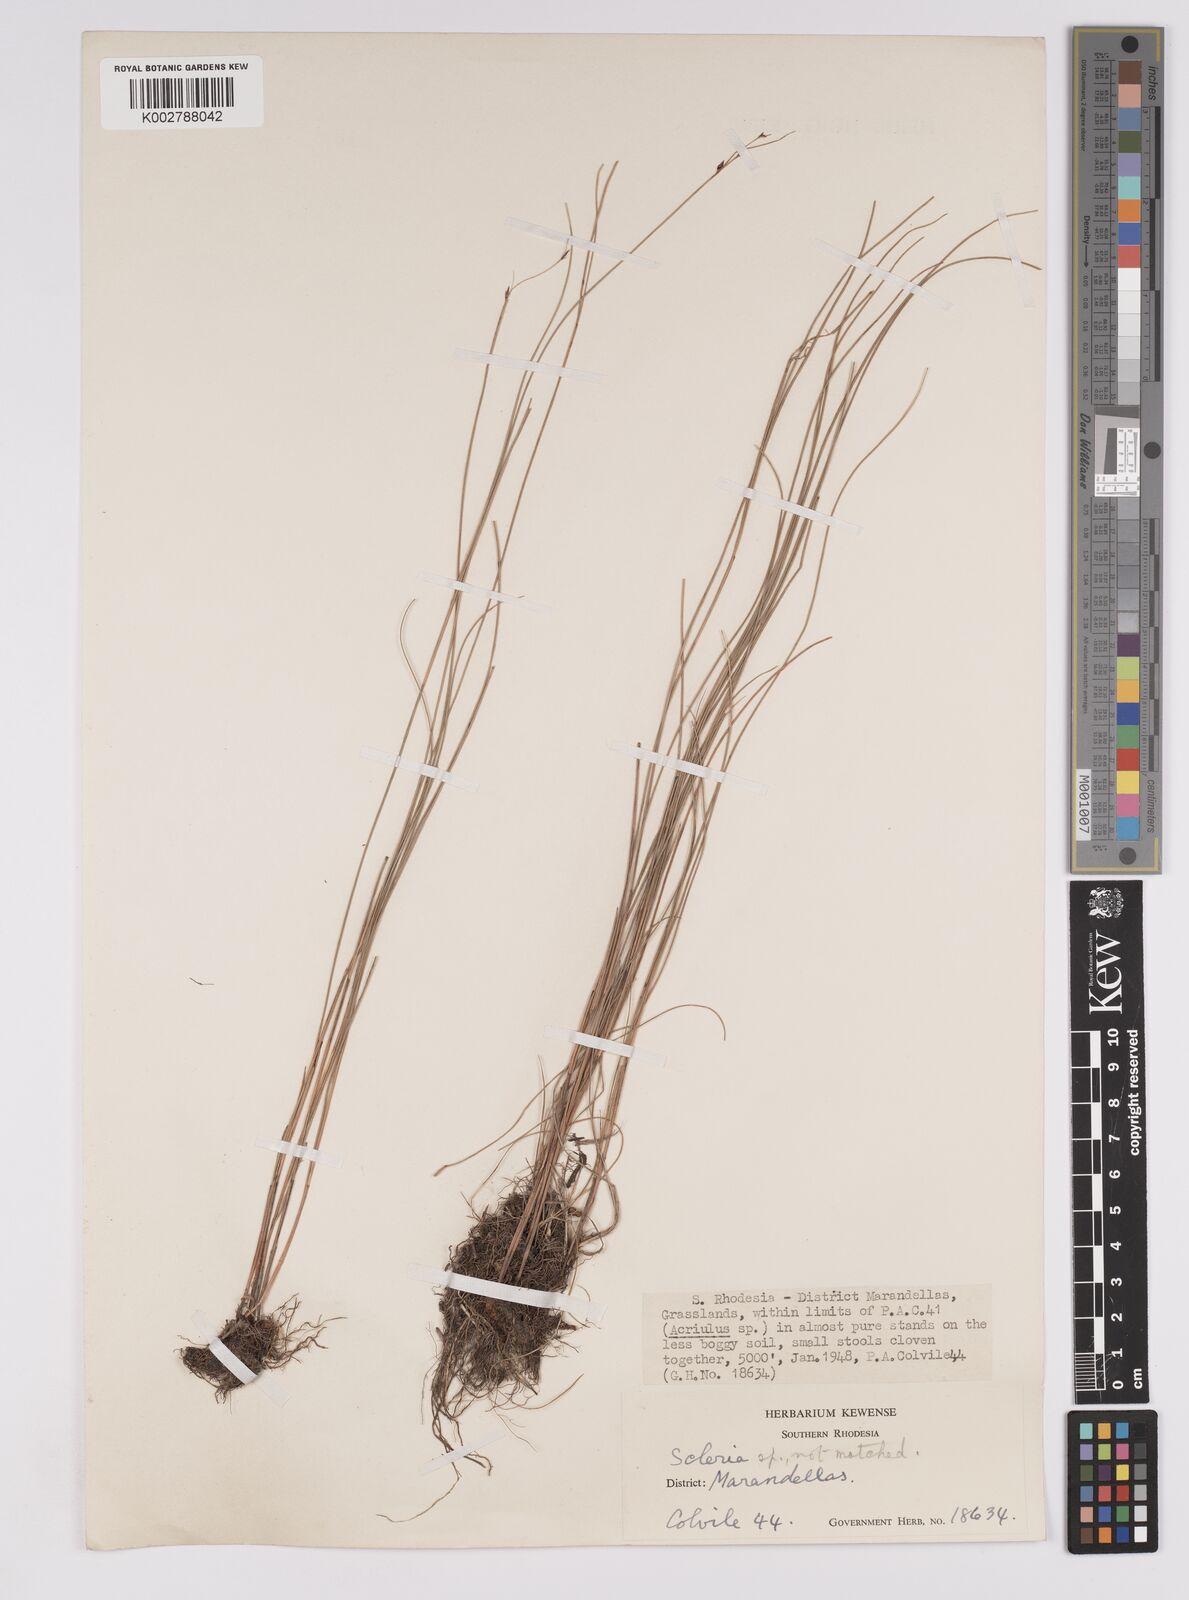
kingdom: Plantae
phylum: Tracheophyta
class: Liliopsida
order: Poales
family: Cyperaceae
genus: Scleria
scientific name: Scleria paupercula
